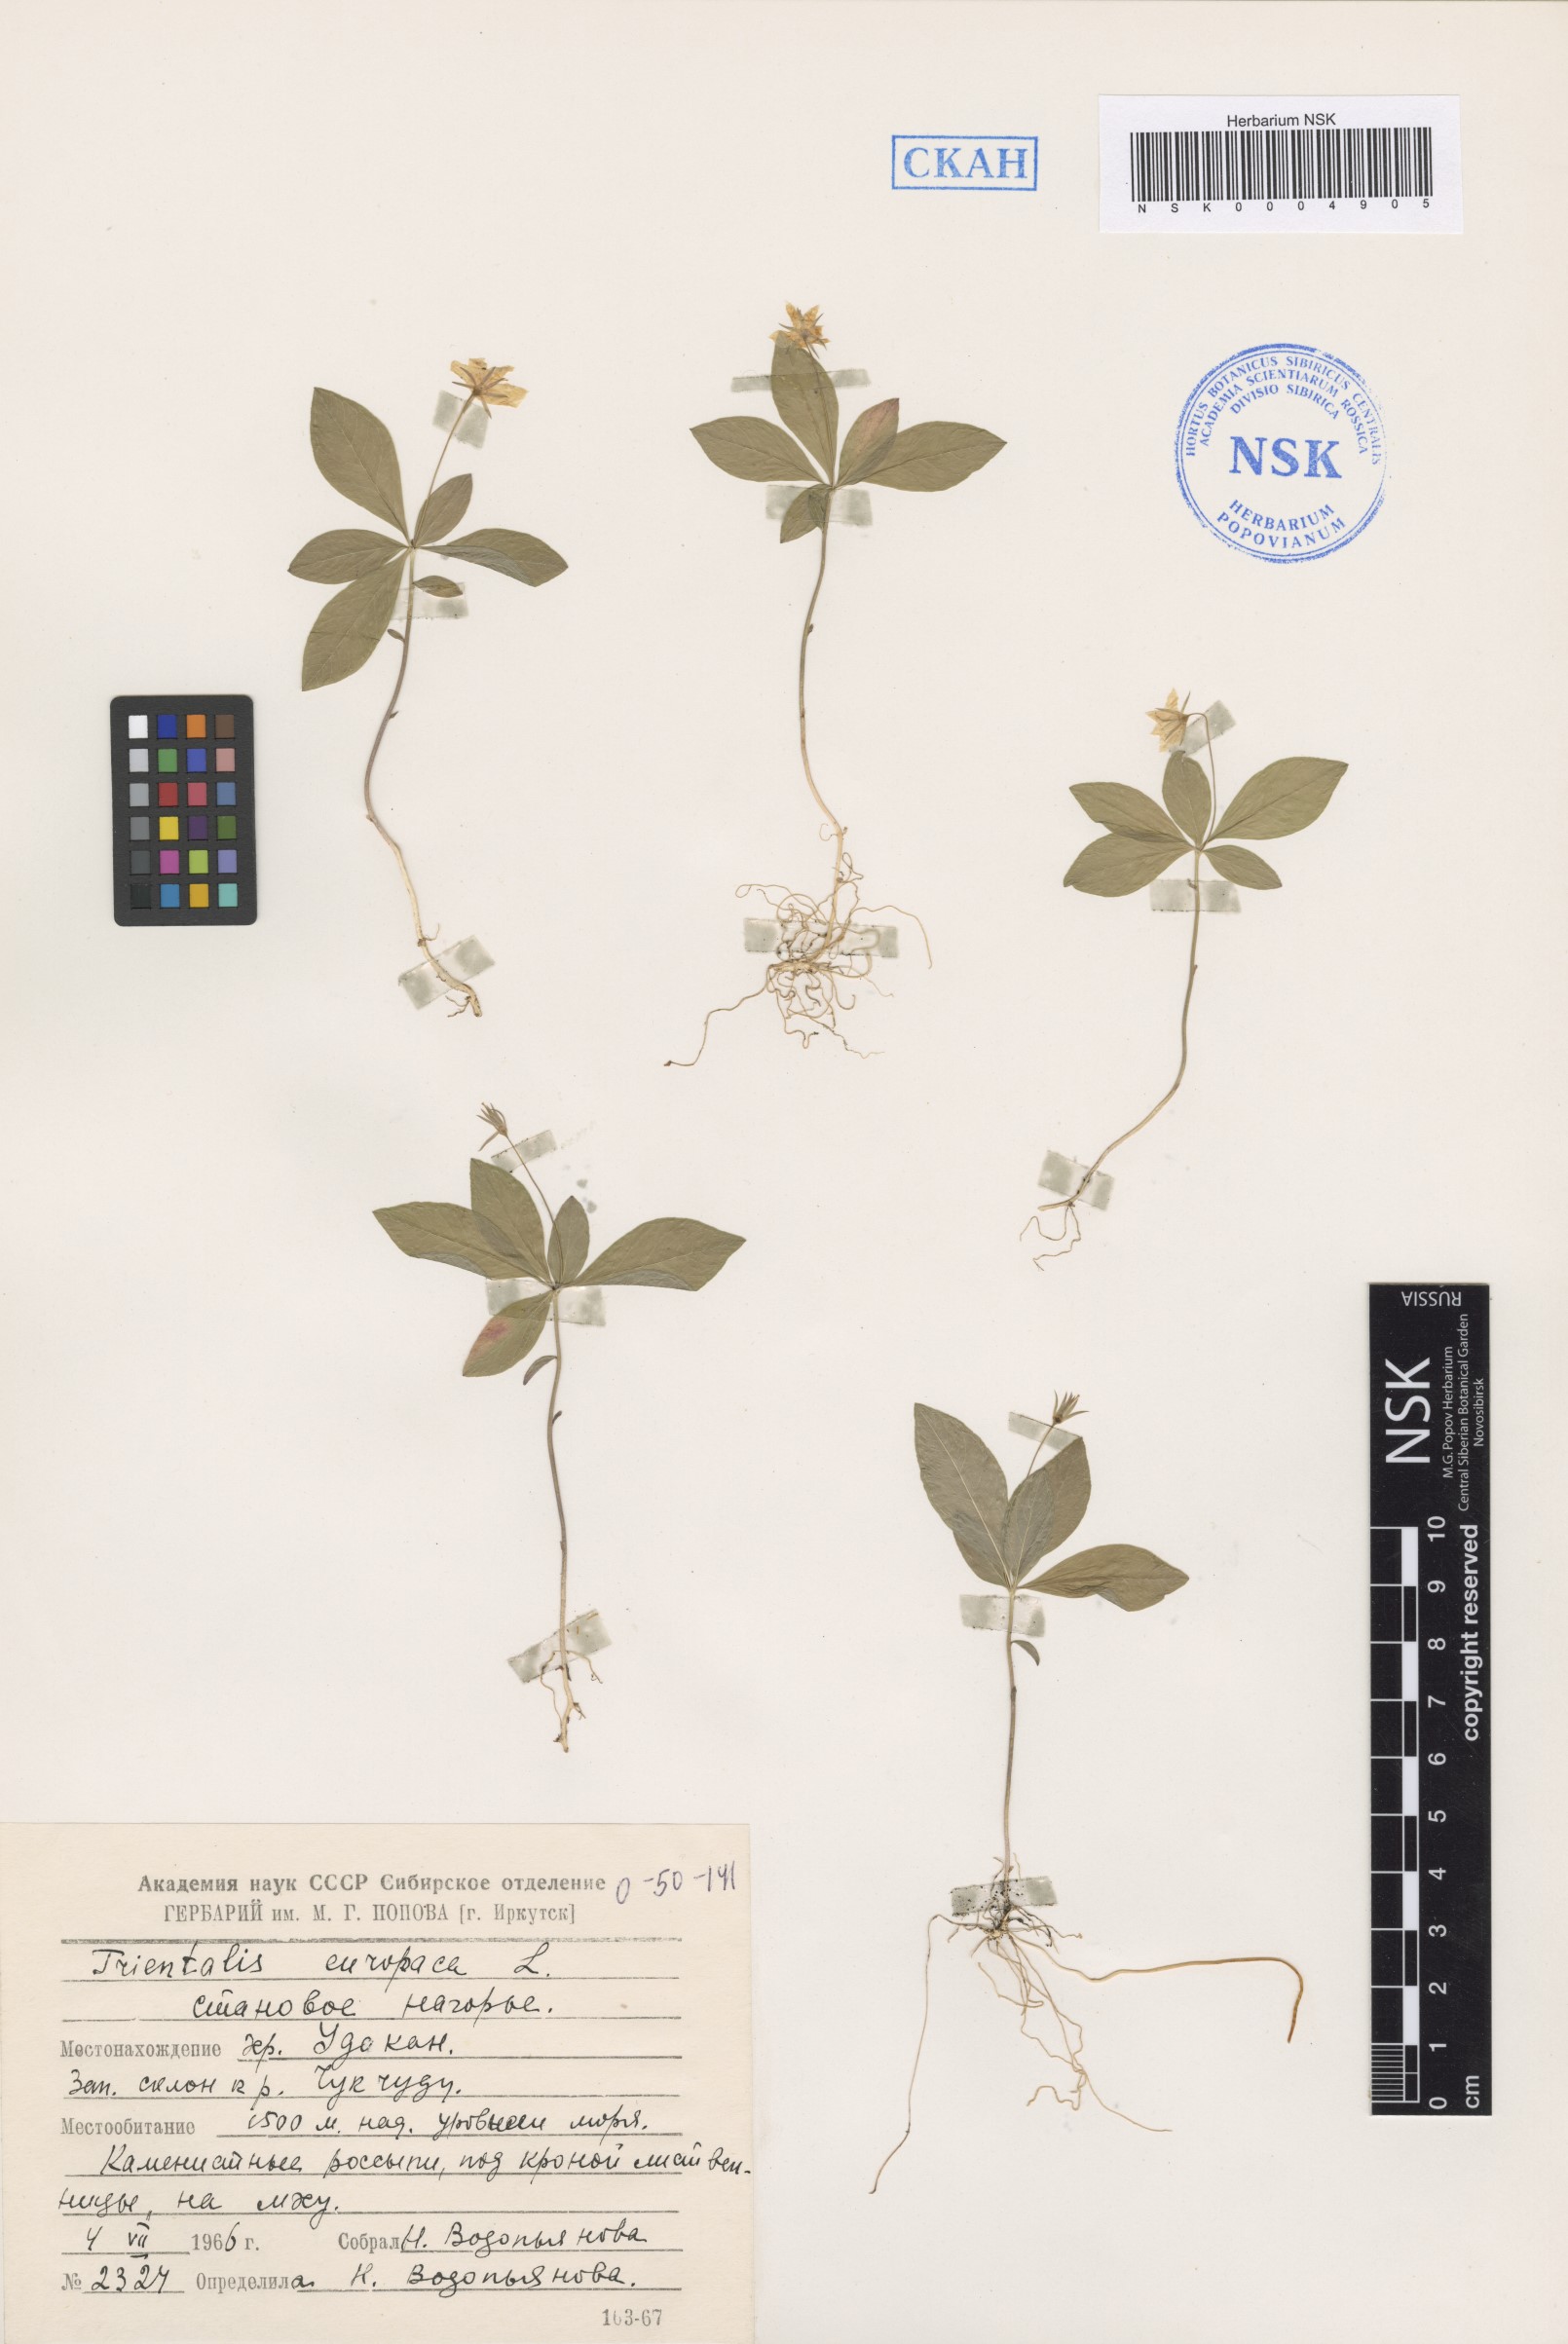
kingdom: Plantae
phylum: Tracheophyta
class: Magnoliopsida
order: Ericales
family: Primulaceae
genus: Lysimachia
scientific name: Lysimachia europaea
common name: Arctic starflower
